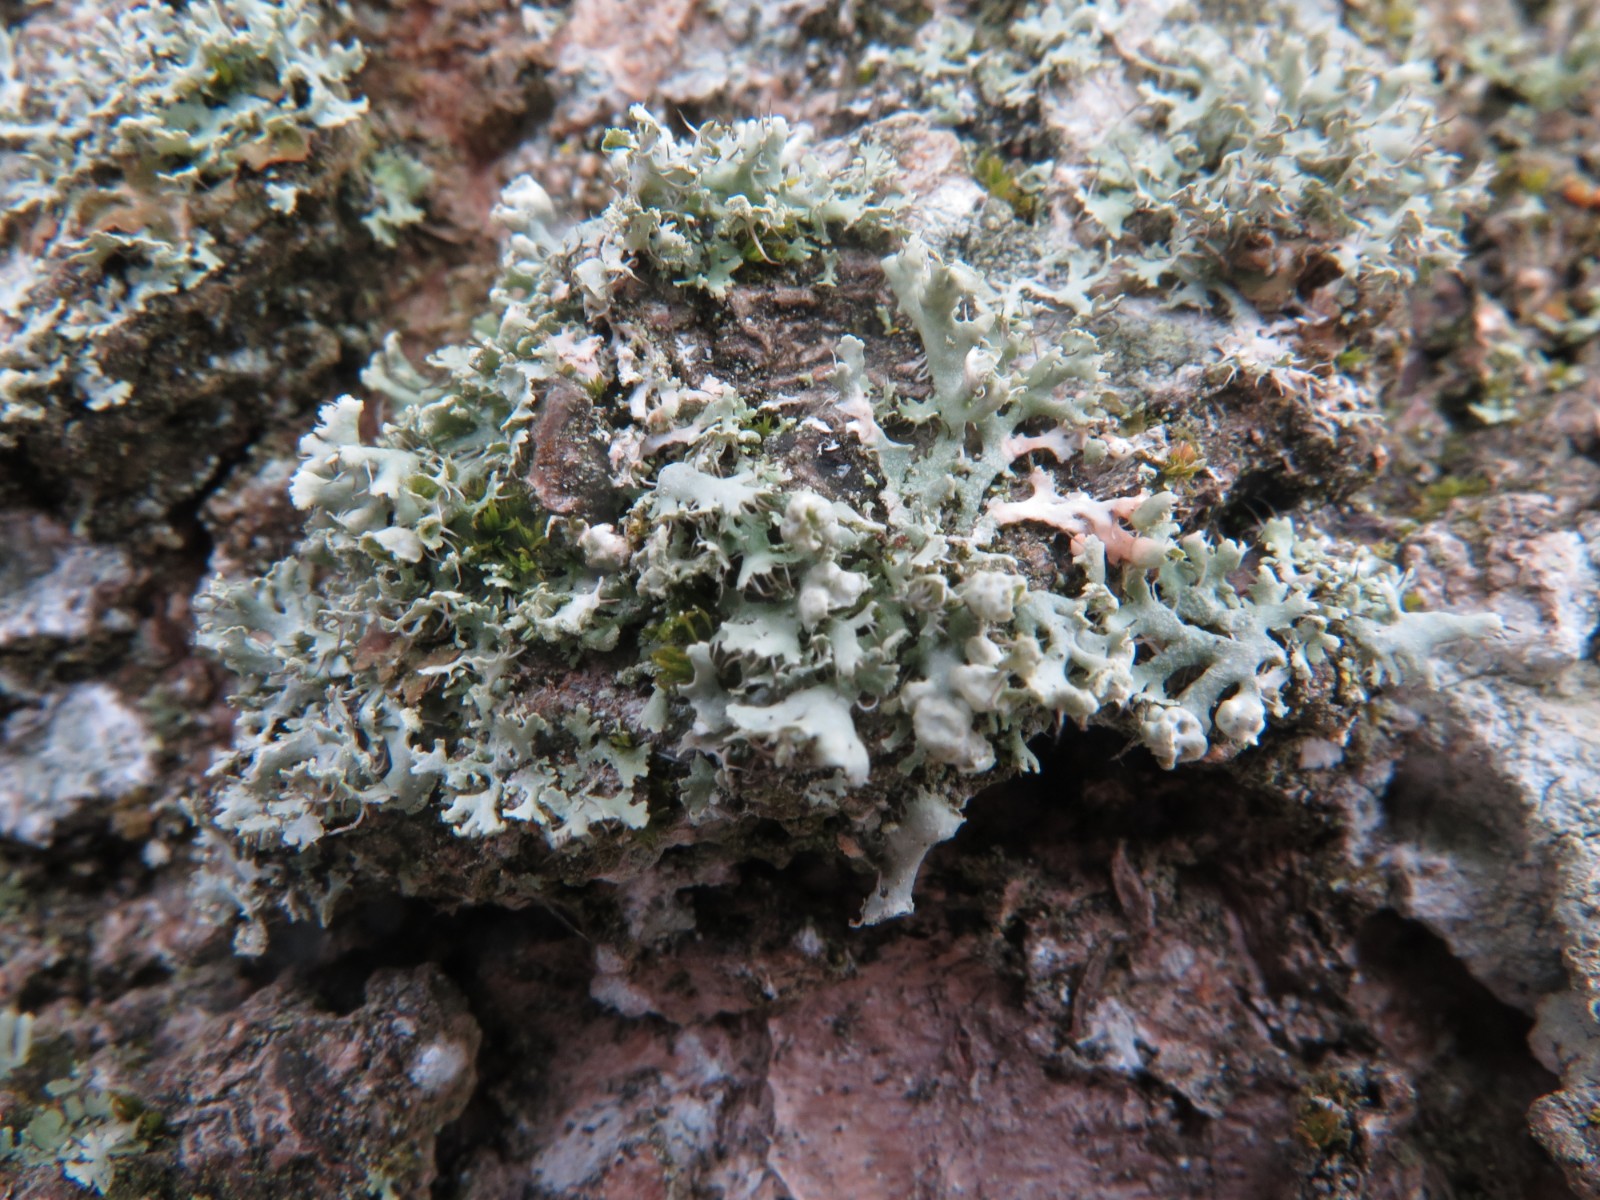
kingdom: Fungi
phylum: Ascomycota
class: Lecanoromycetes
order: Caliciales
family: Physciaceae
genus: Physcia
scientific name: Physcia adscendens
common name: hætte-rosetlav
